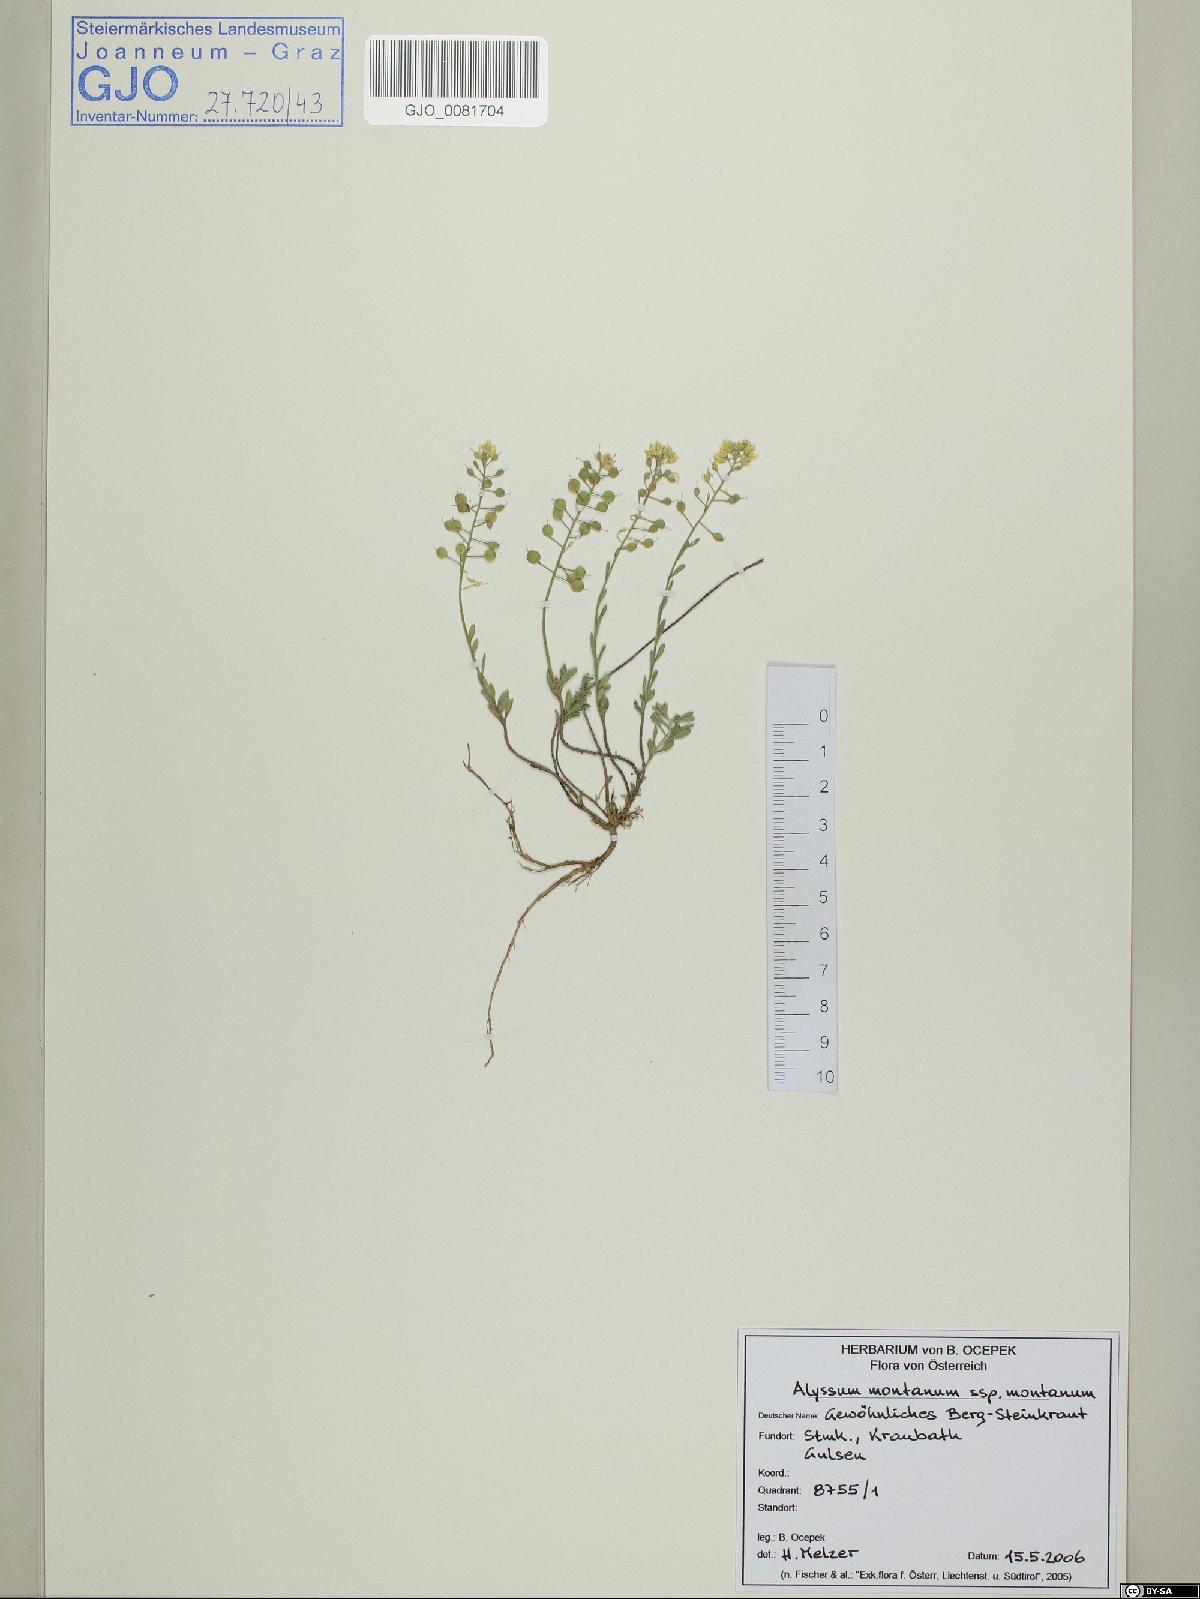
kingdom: Plantae
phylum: Tracheophyta
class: Magnoliopsida
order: Brassicales
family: Brassicaceae
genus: Alyssum
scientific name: Alyssum montanum
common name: Mountain alison
